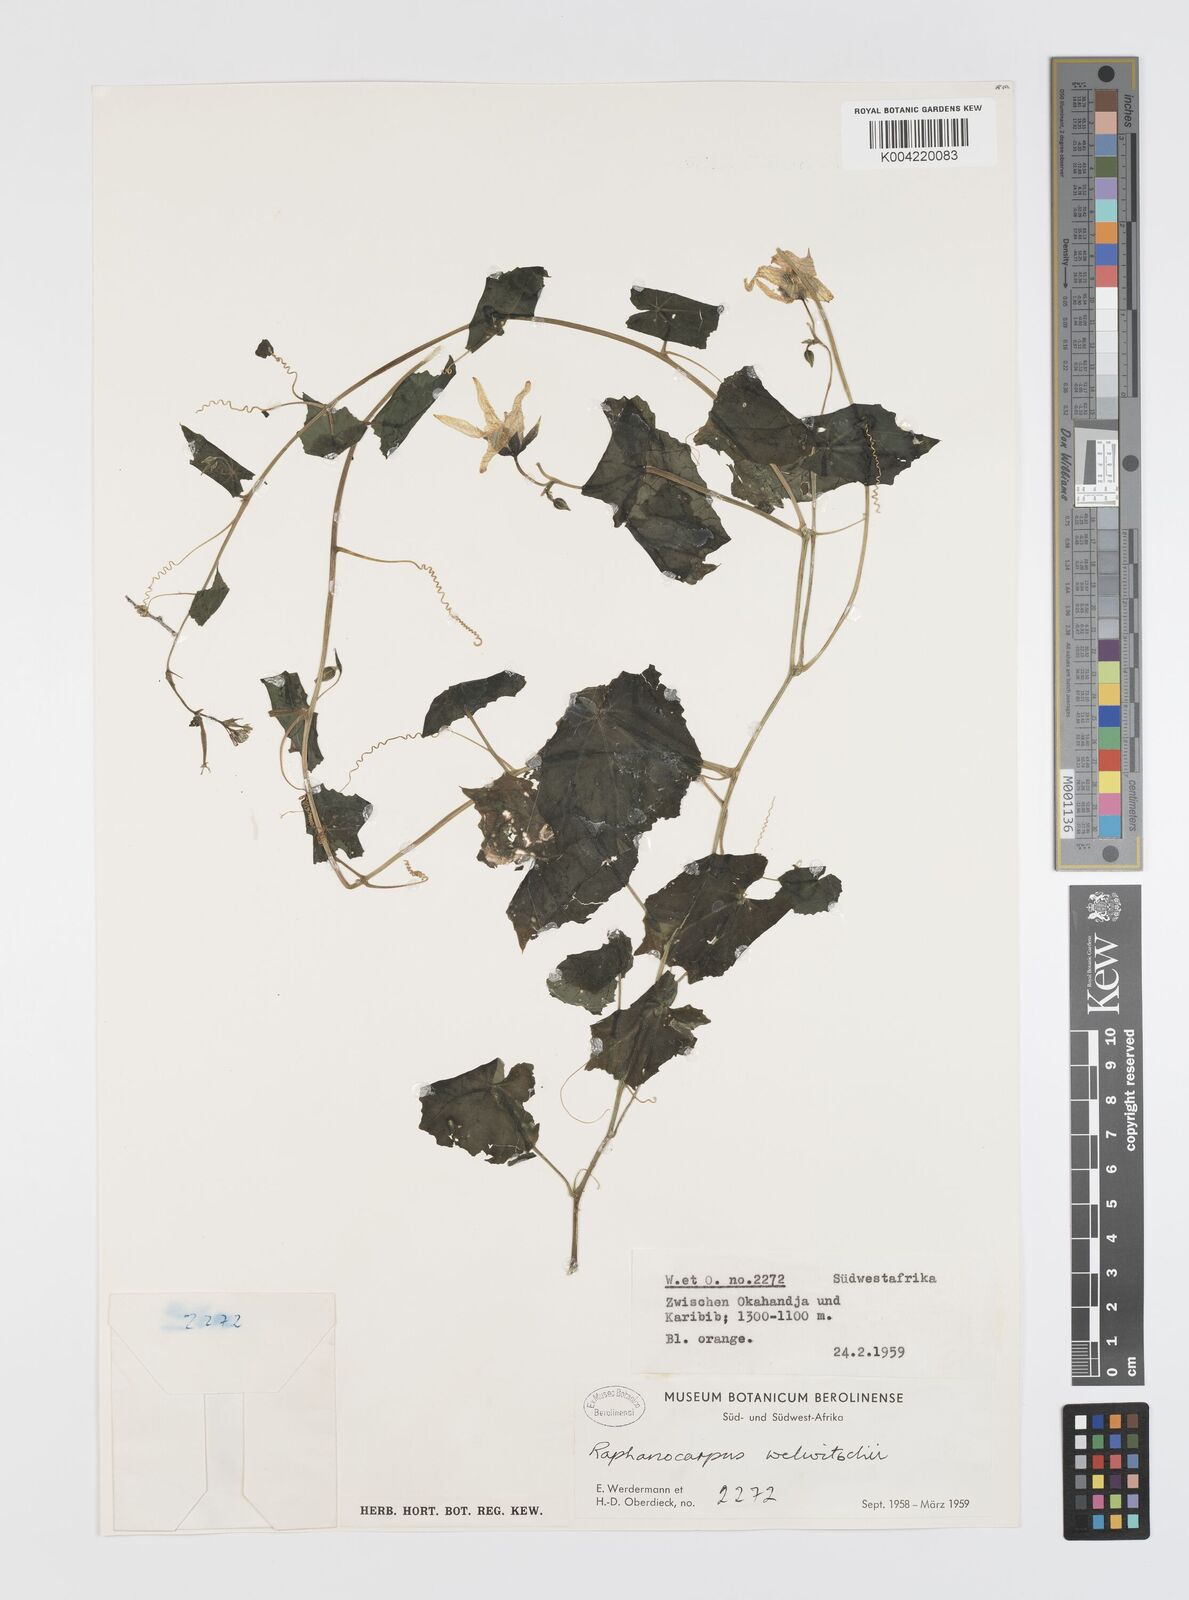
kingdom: Plantae
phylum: Tracheophyta
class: Magnoliopsida
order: Cucurbitales
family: Cucurbitaceae
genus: Momordica
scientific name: Momordica
